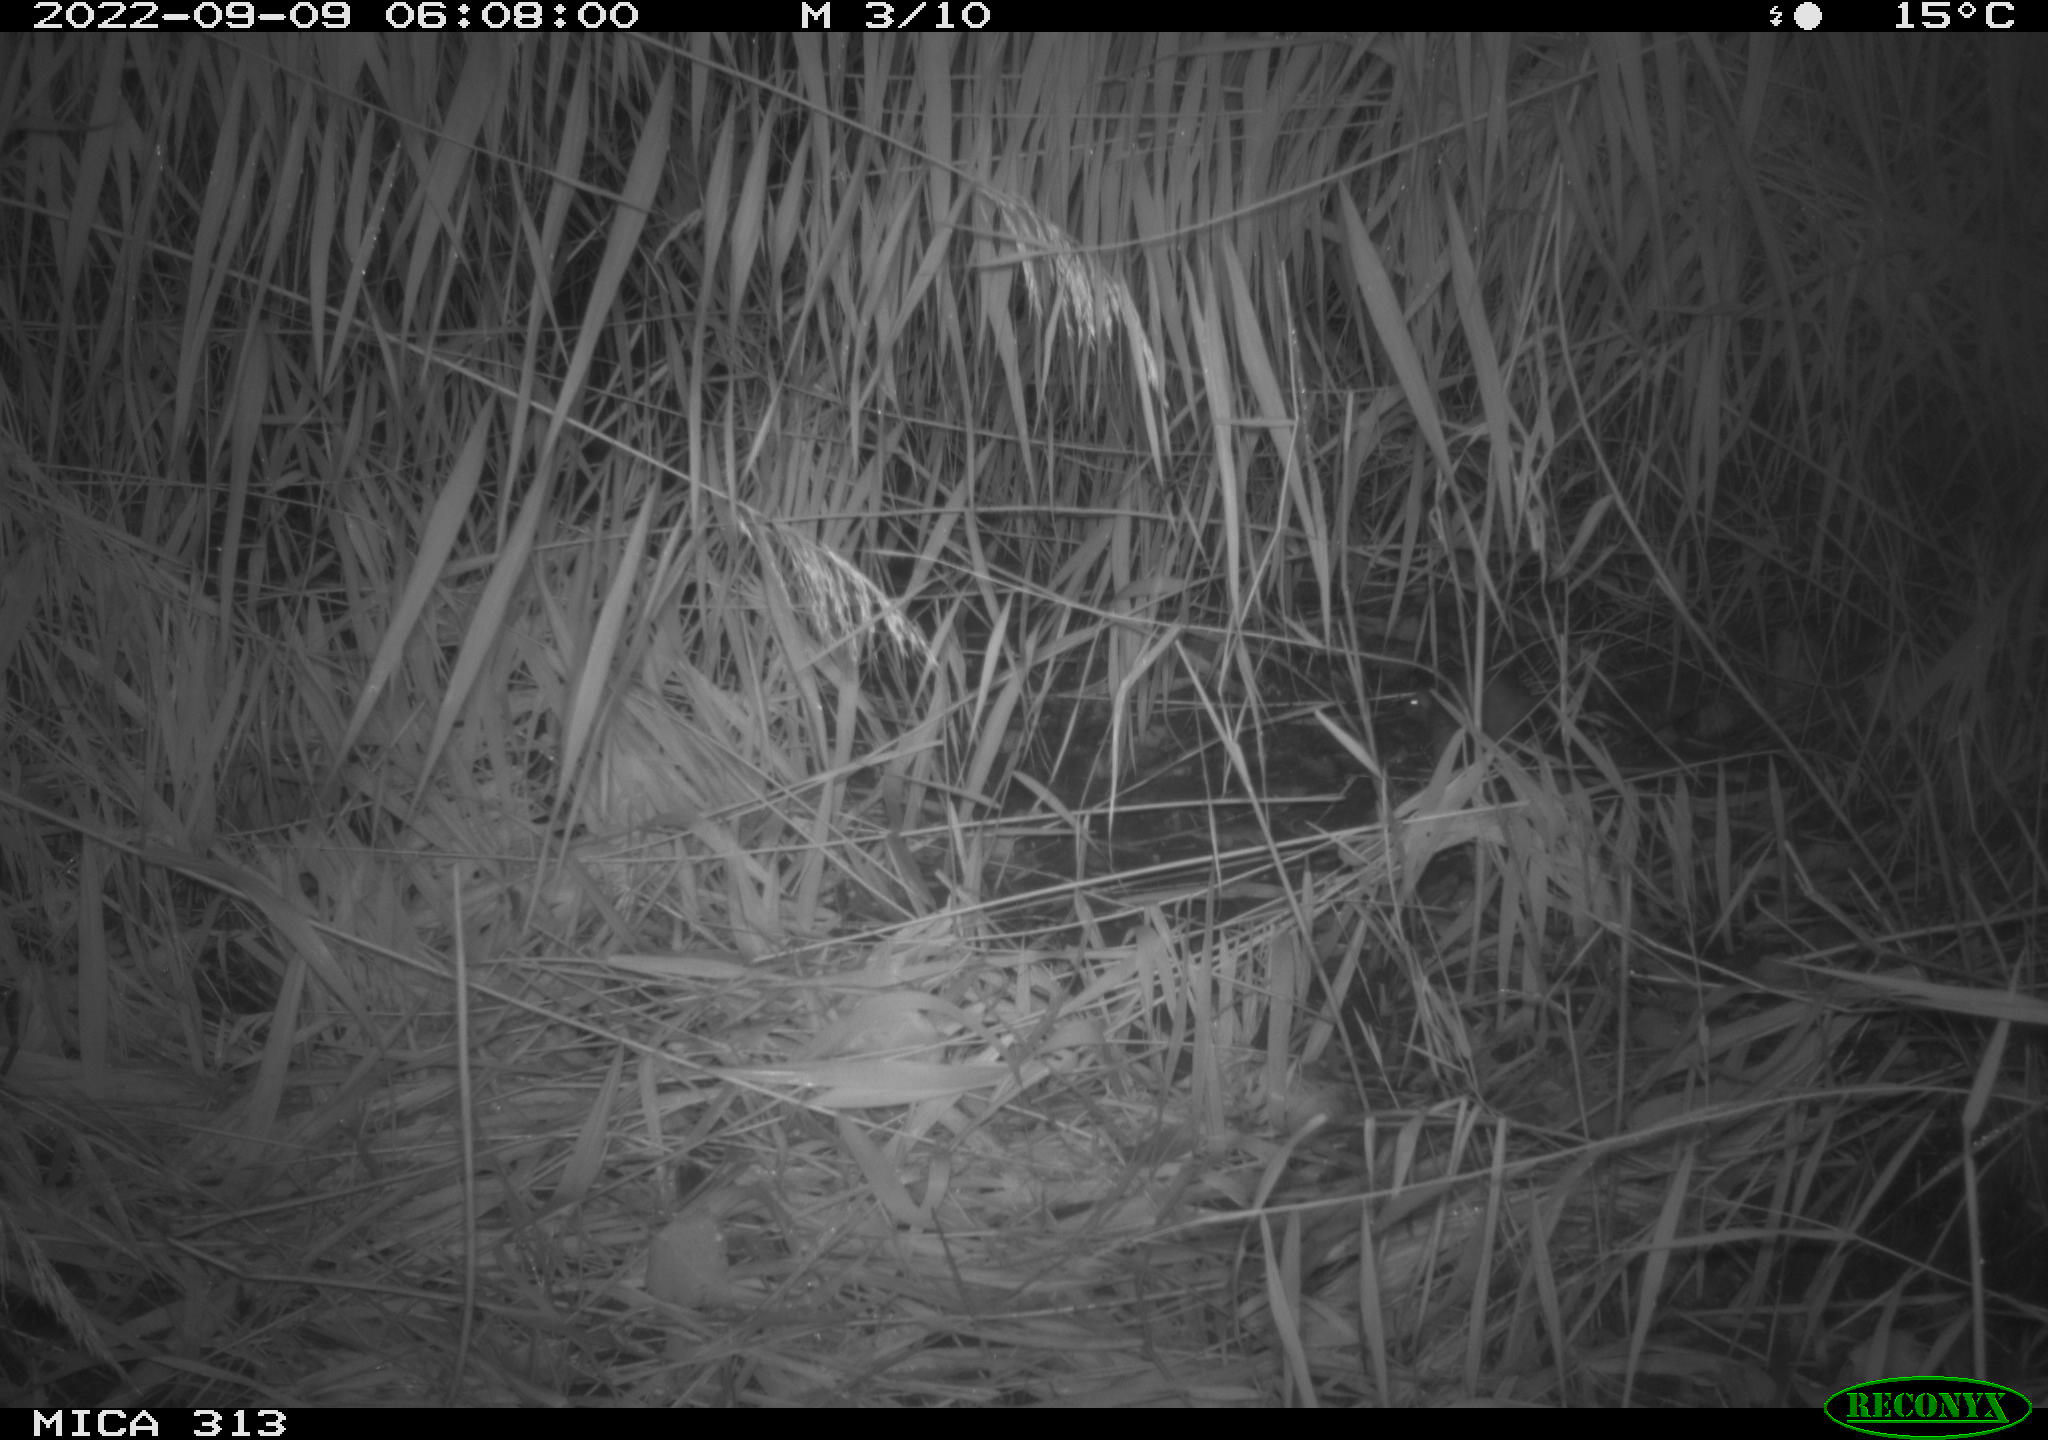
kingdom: Animalia
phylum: Chordata
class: Mammalia
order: Rodentia
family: Muridae
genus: Rattus
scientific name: Rattus norvegicus
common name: Brown rat
